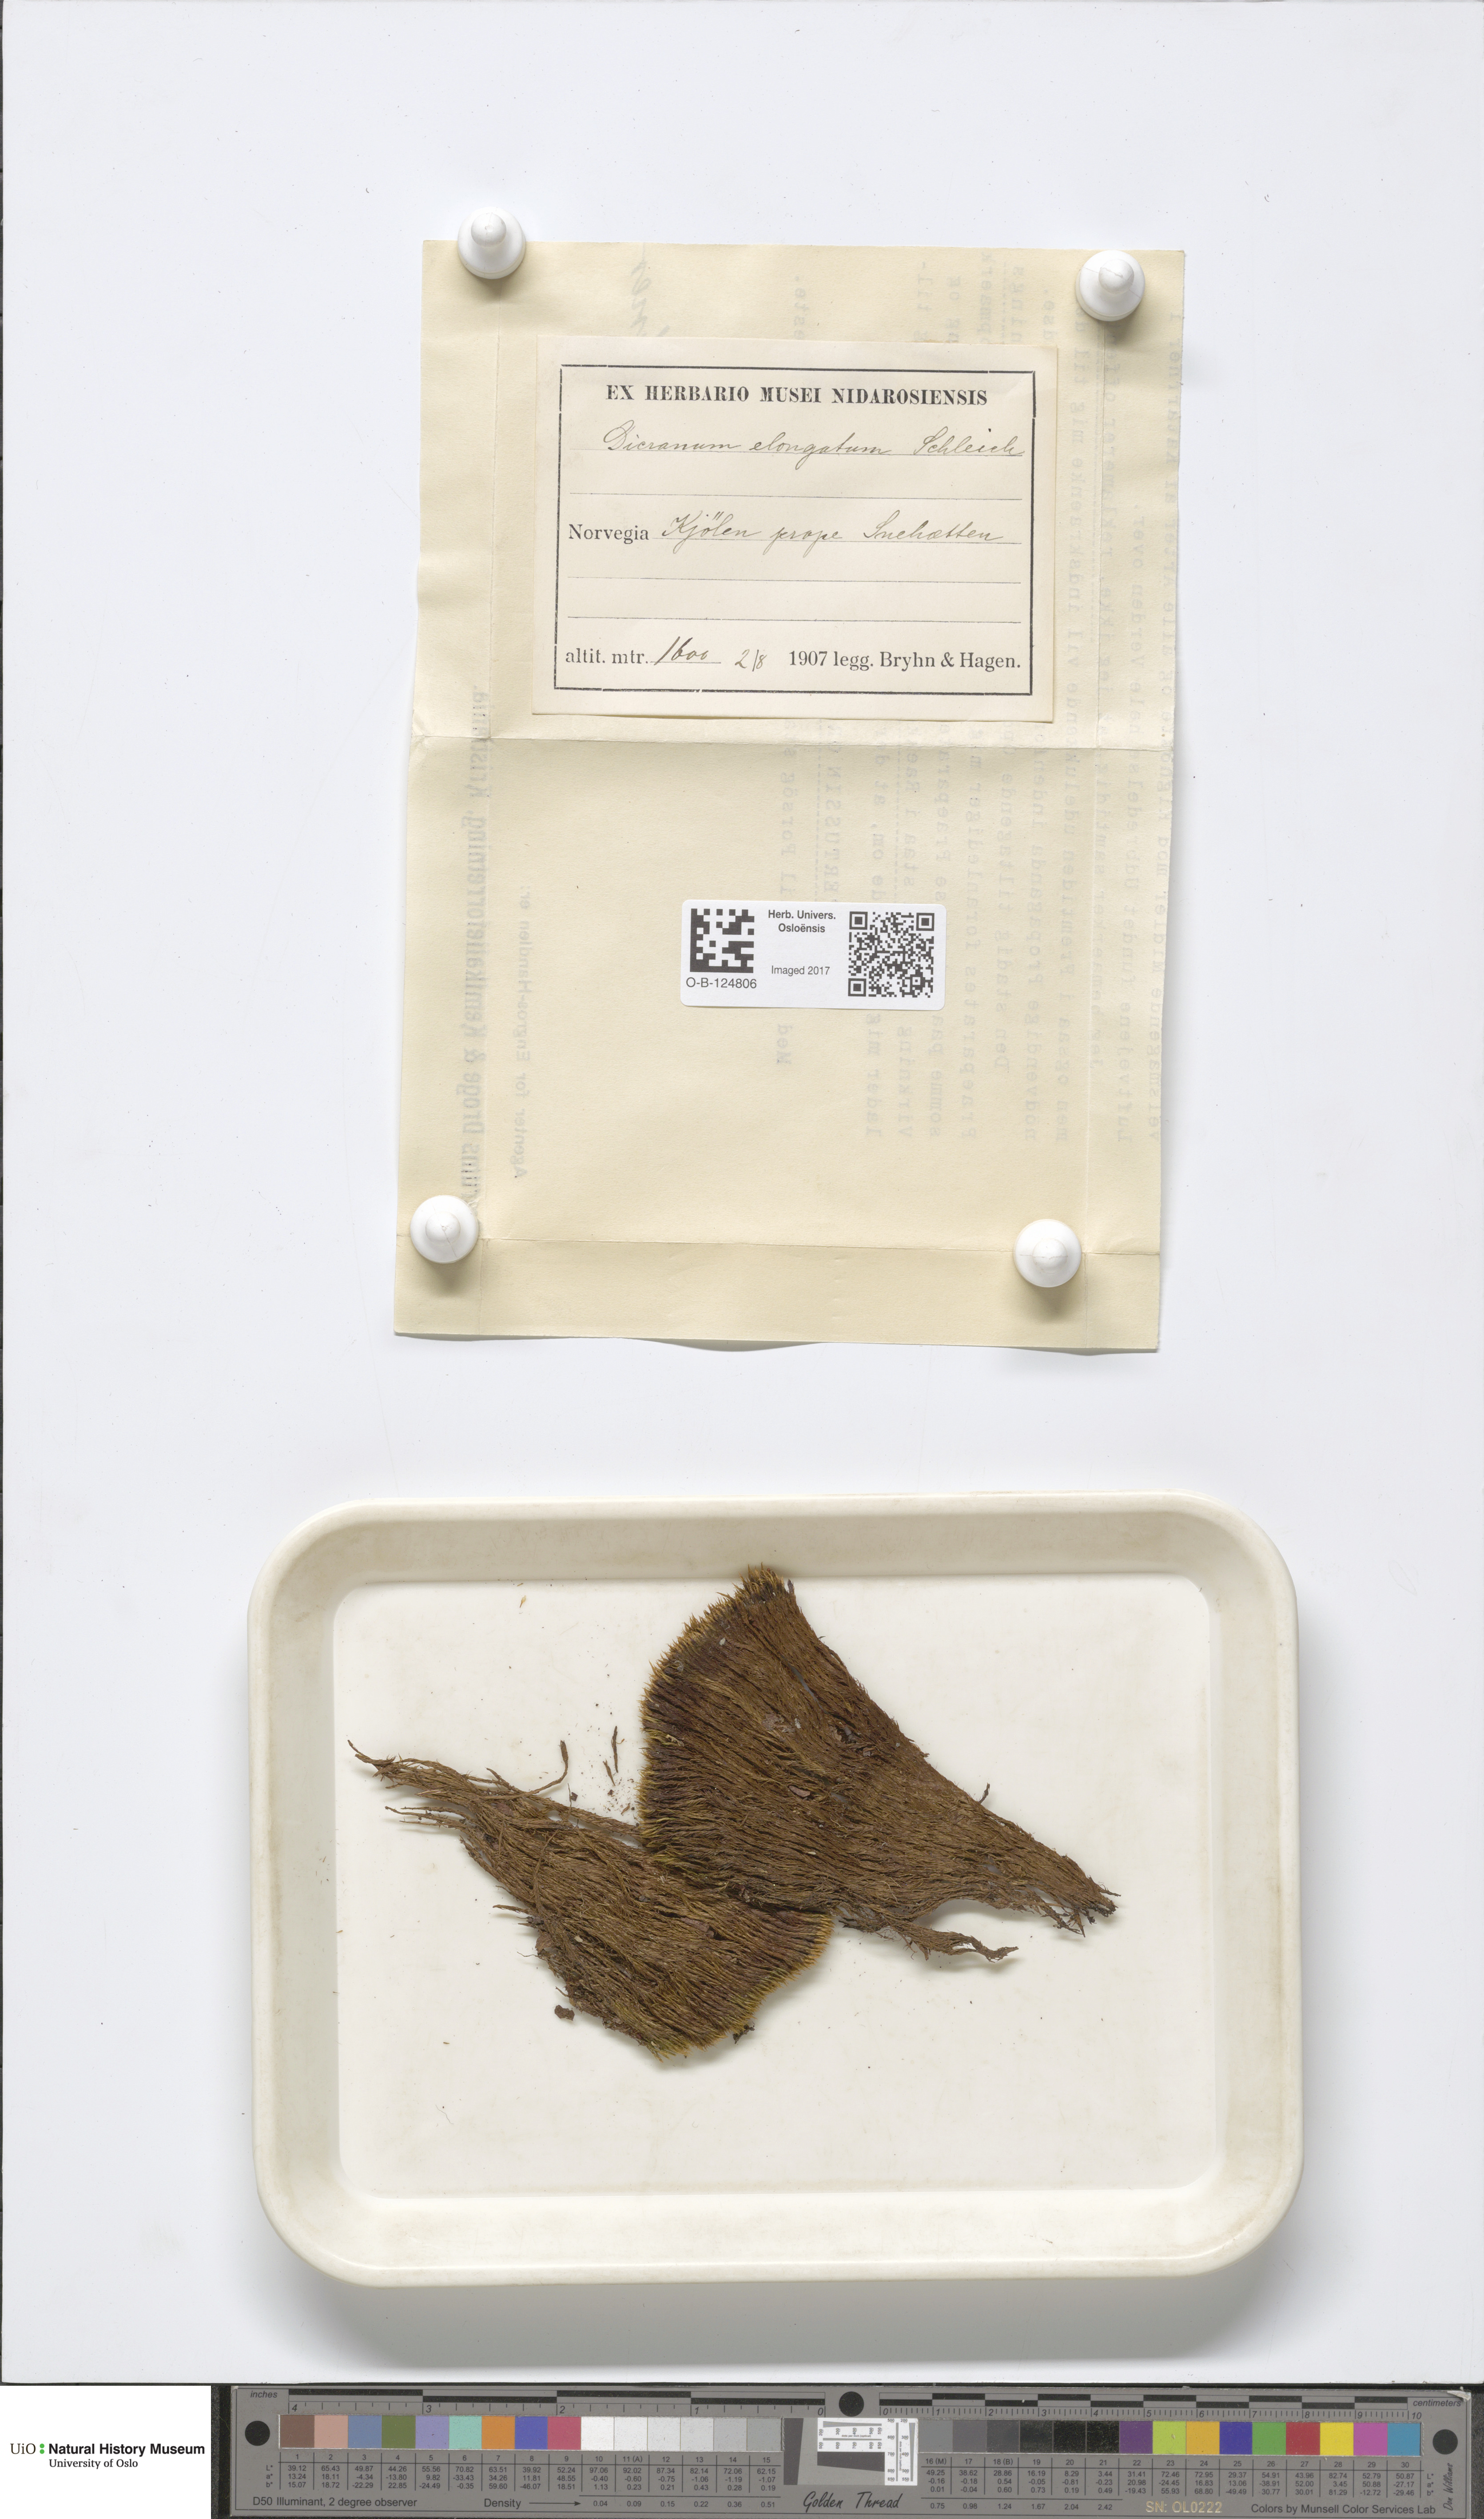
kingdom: Plantae
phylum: Bryophyta
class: Bryopsida
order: Dicranales
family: Dicranaceae
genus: Dicranum
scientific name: Dicranum elongatum
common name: Long-forked broom moss
